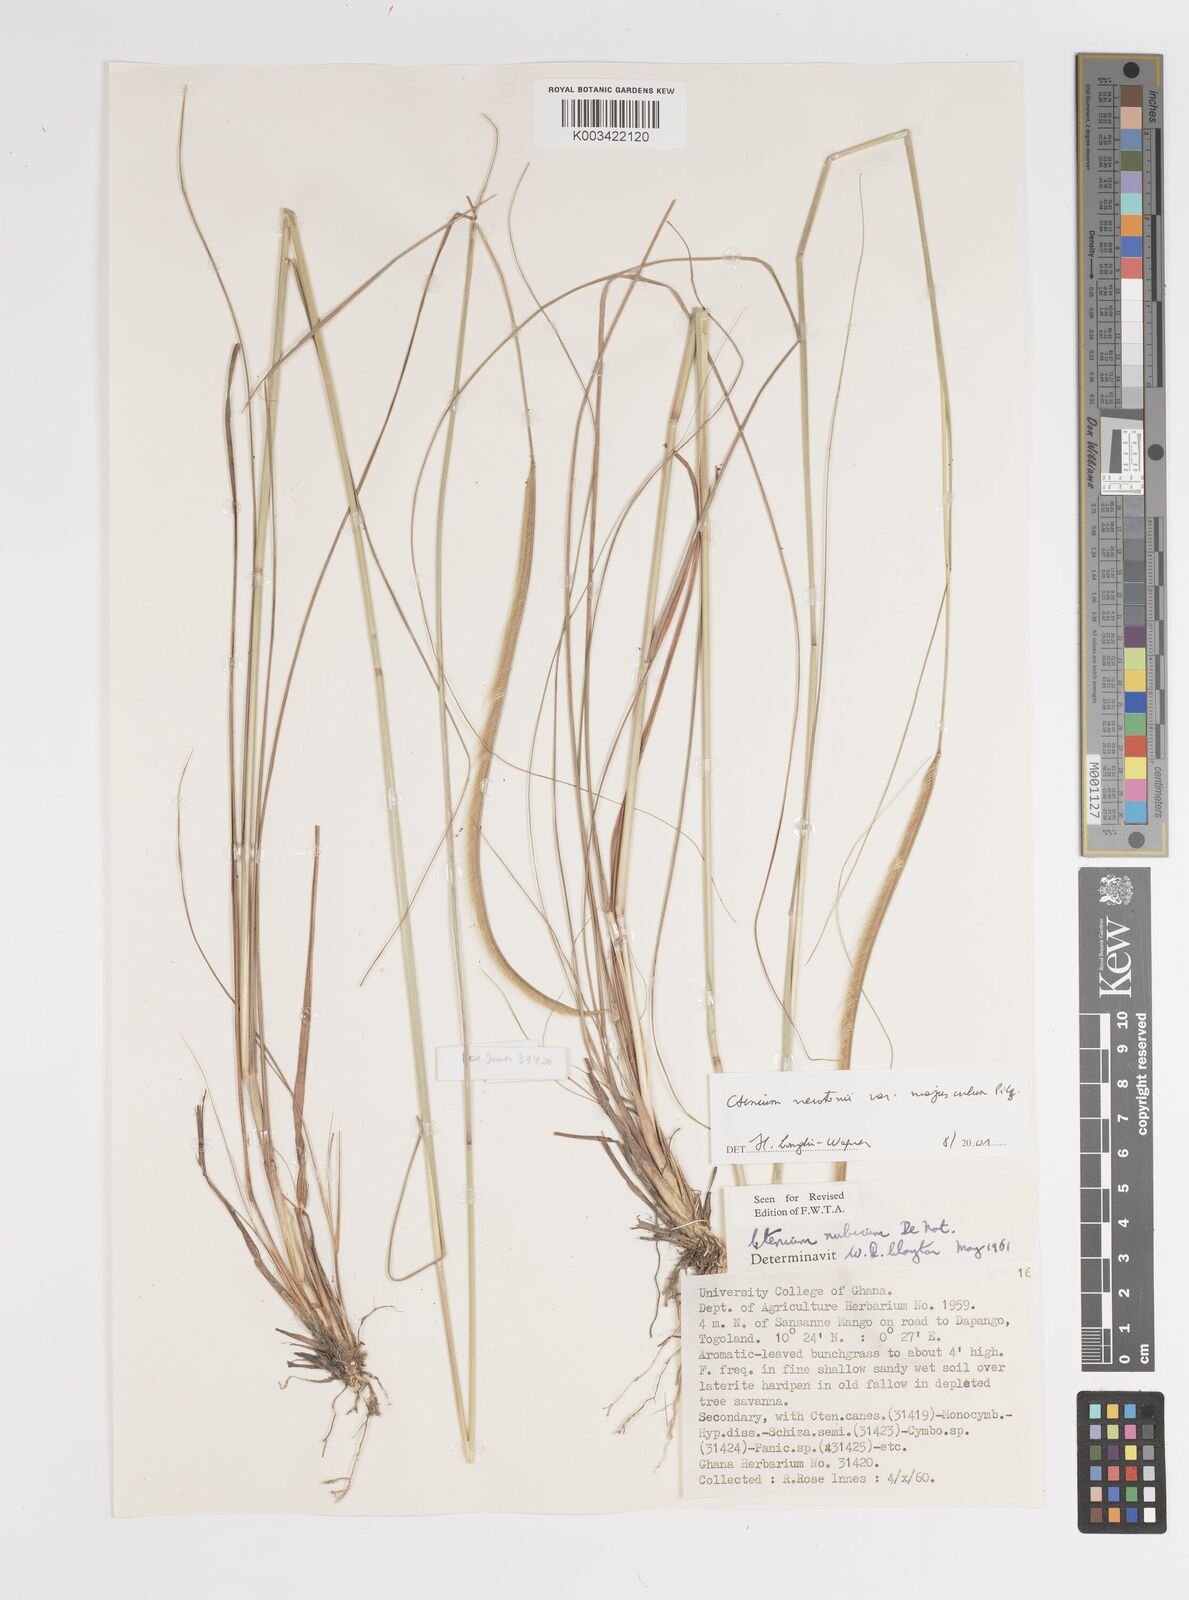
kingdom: Plantae
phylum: Tracheophyta
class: Liliopsida
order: Poales
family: Poaceae
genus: Ctenium
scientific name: Ctenium newtonii
